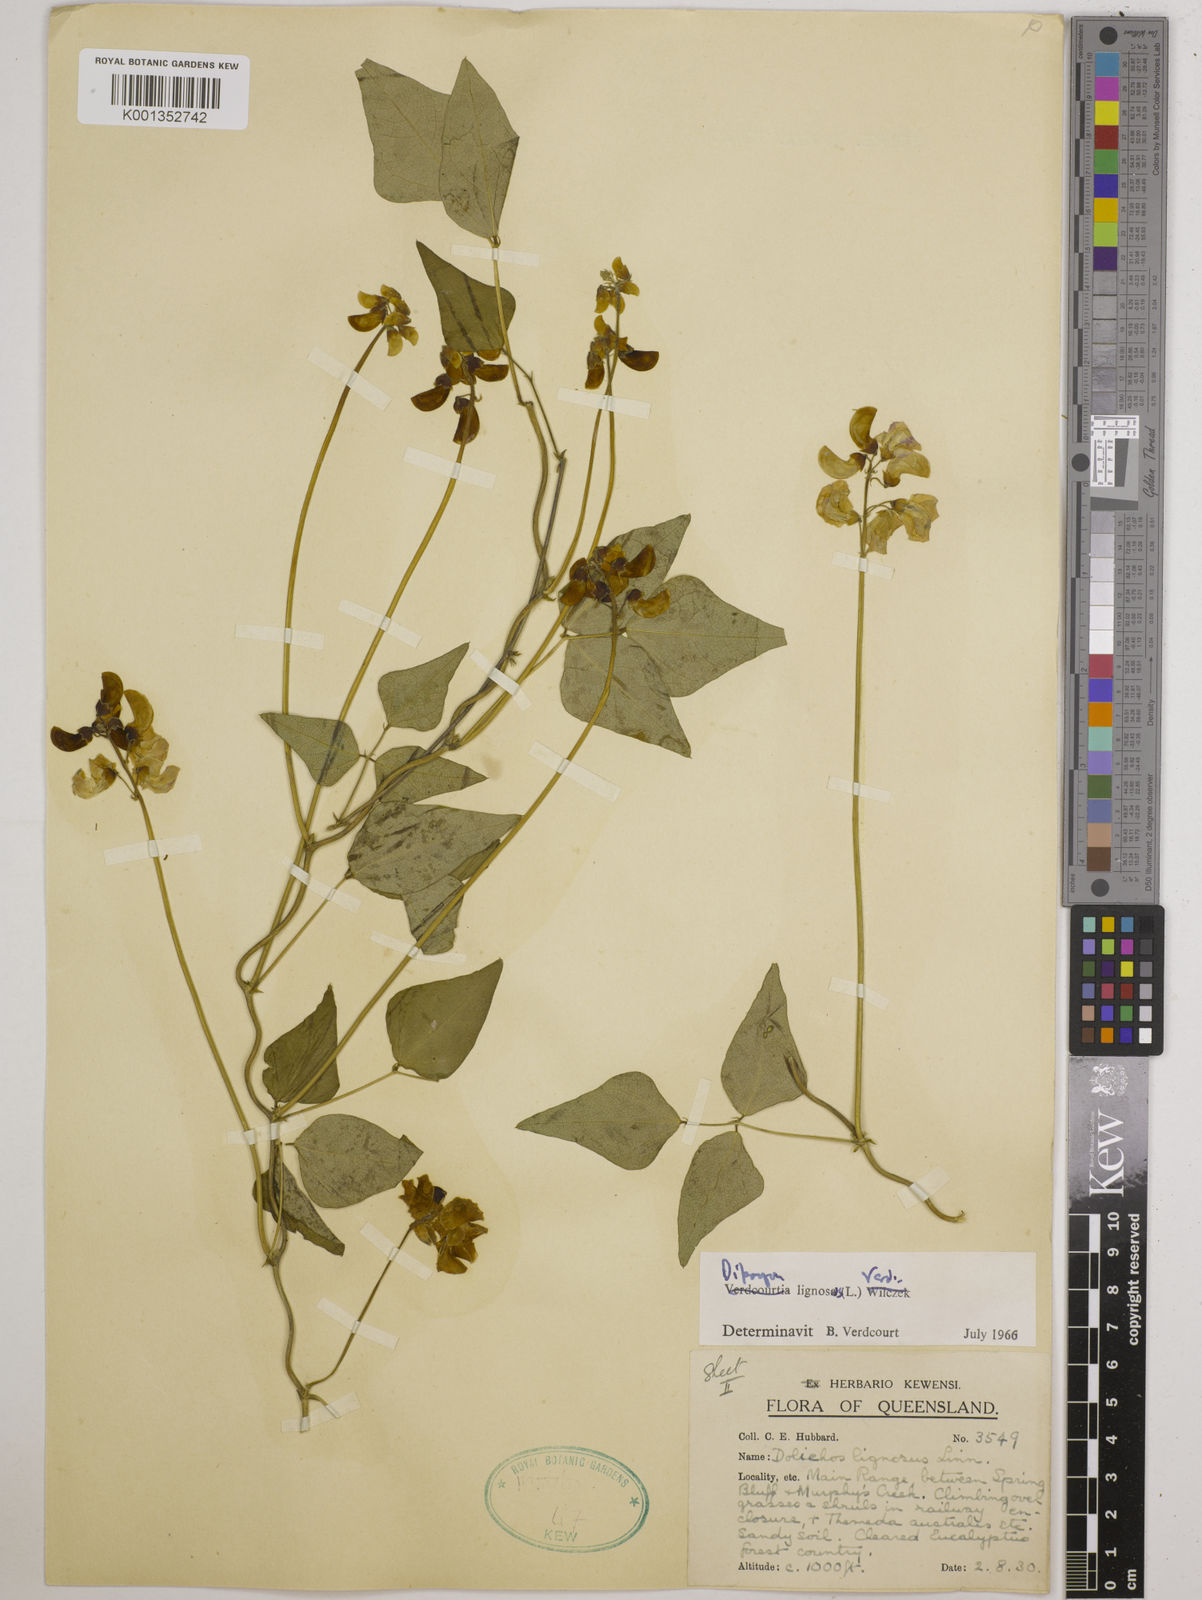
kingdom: Plantae
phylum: Tracheophyta
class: Magnoliopsida
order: Fabales
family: Fabaceae
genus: Dipogon
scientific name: Dipogon lignosus
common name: Okie bean
